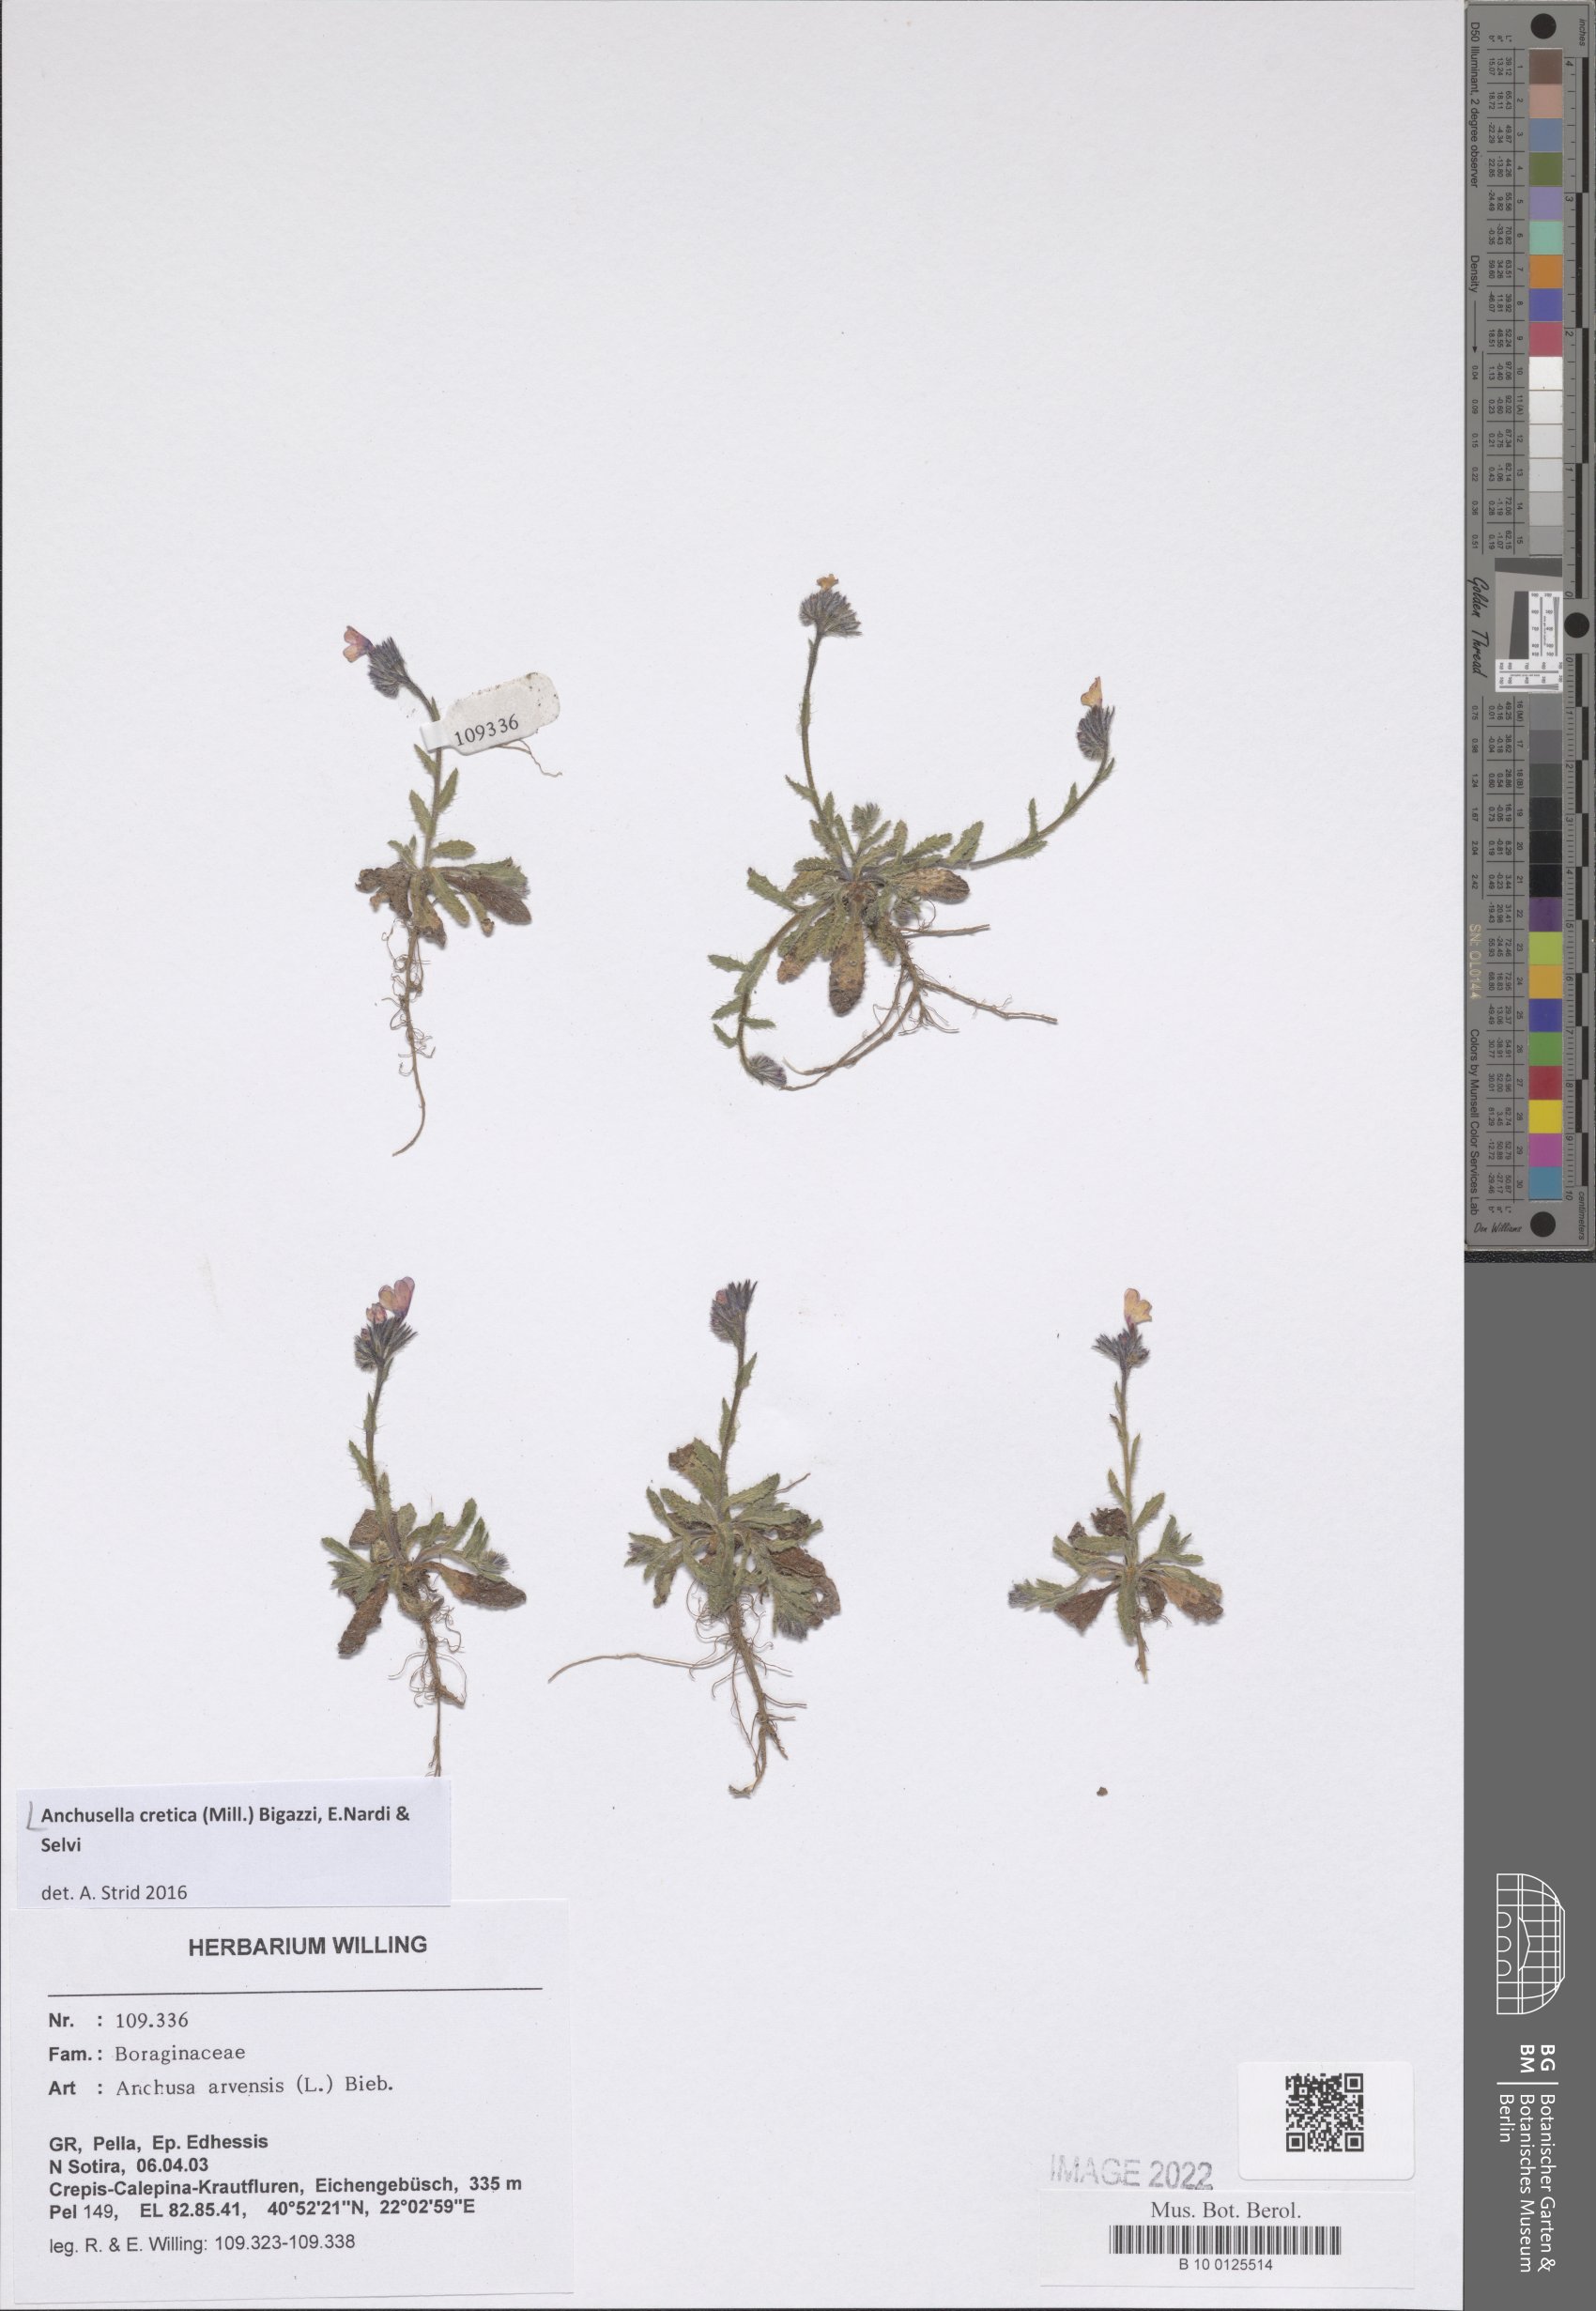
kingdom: Plantae
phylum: Tracheophyta
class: Magnoliopsida
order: Boraginales
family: Boraginaceae
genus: Anchusella
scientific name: Anchusella cretica
